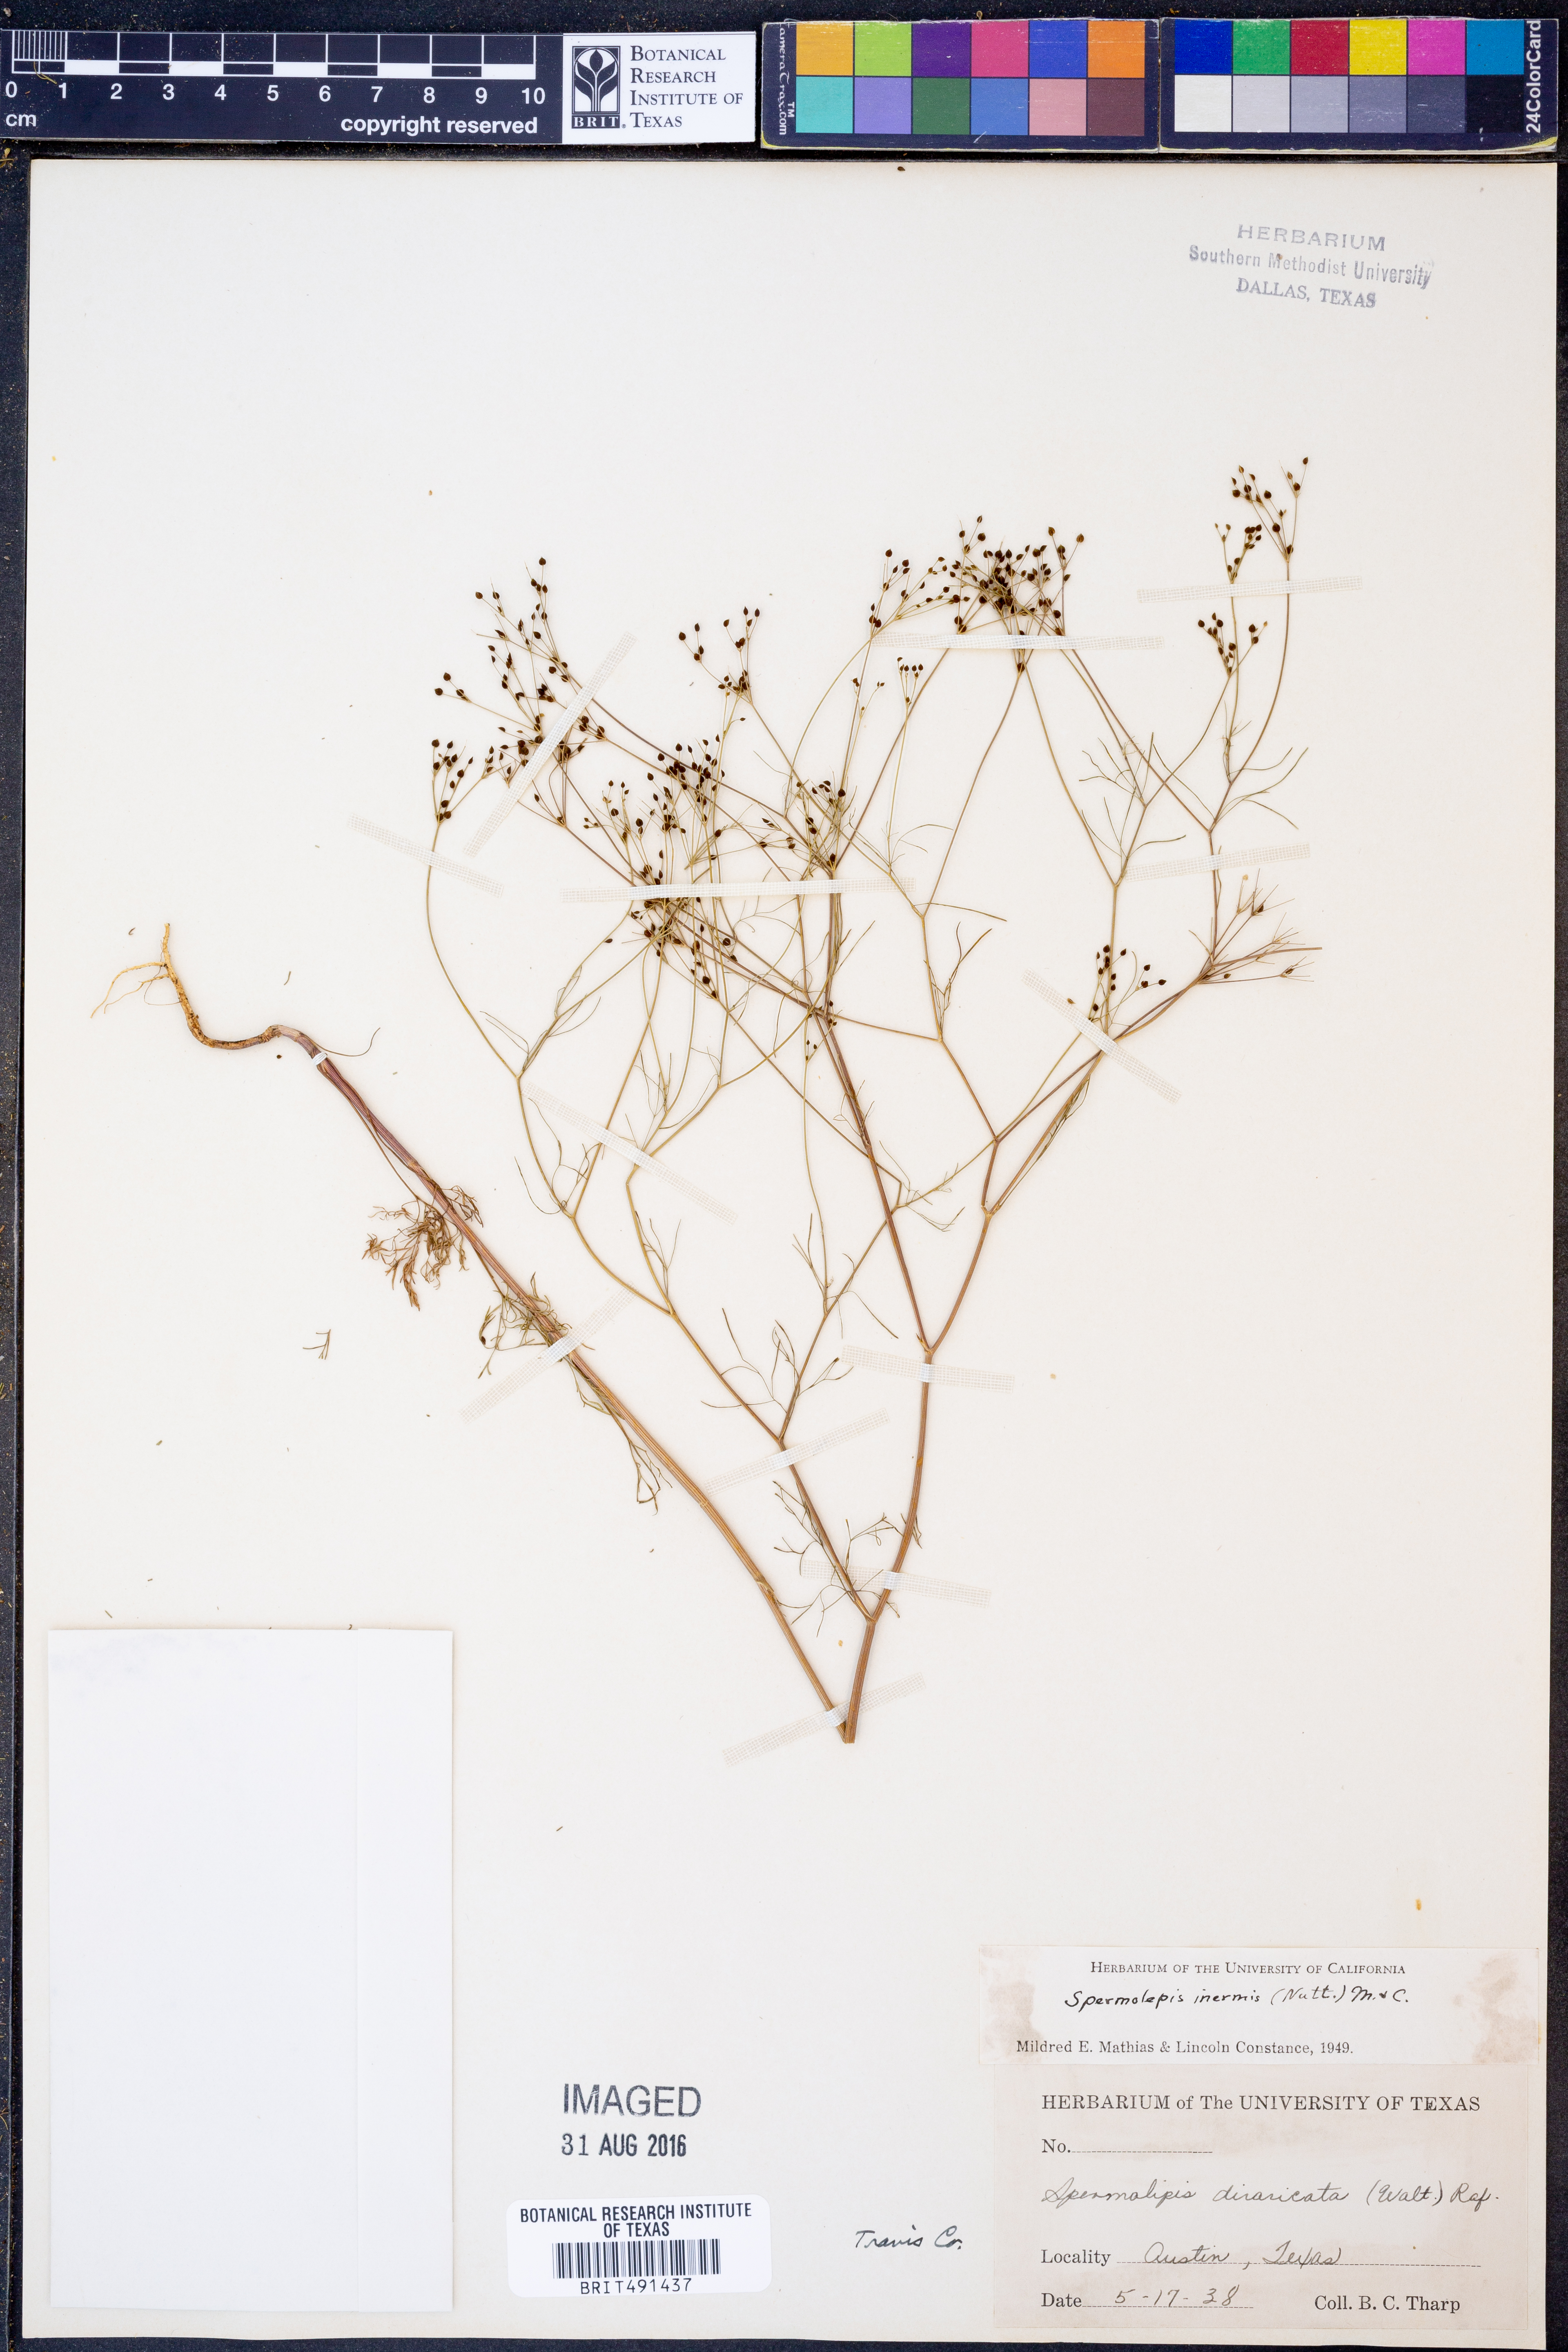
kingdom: Plantae
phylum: Tracheophyta
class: Magnoliopsida
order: Apiales
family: Apiaceae
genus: Spermolepis
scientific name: Spermolepis inermis
